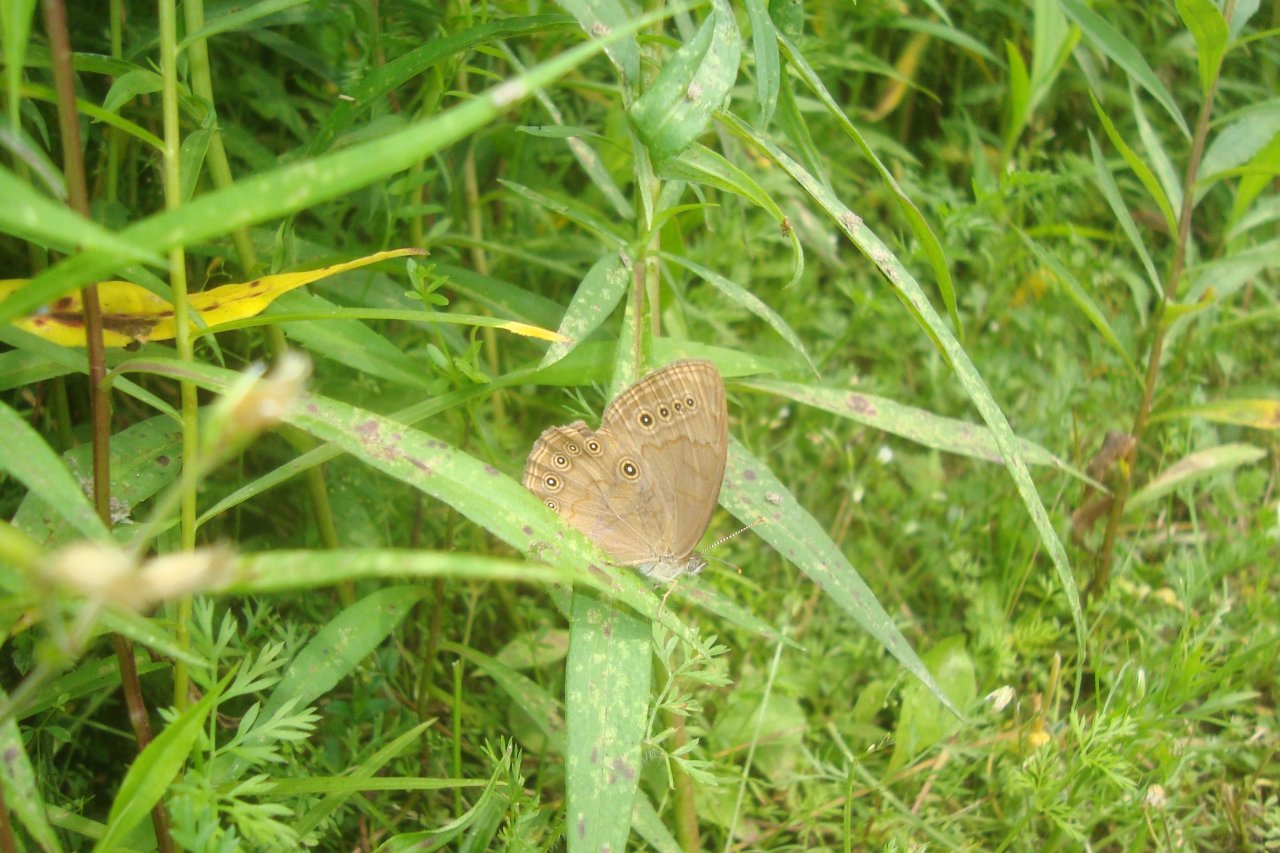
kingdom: Animalia
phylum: Arthropoda
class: Insecta
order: Lepidoptera
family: Nymphalidae
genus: Lethe
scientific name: Lethe eurydice
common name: Eyed Brown
